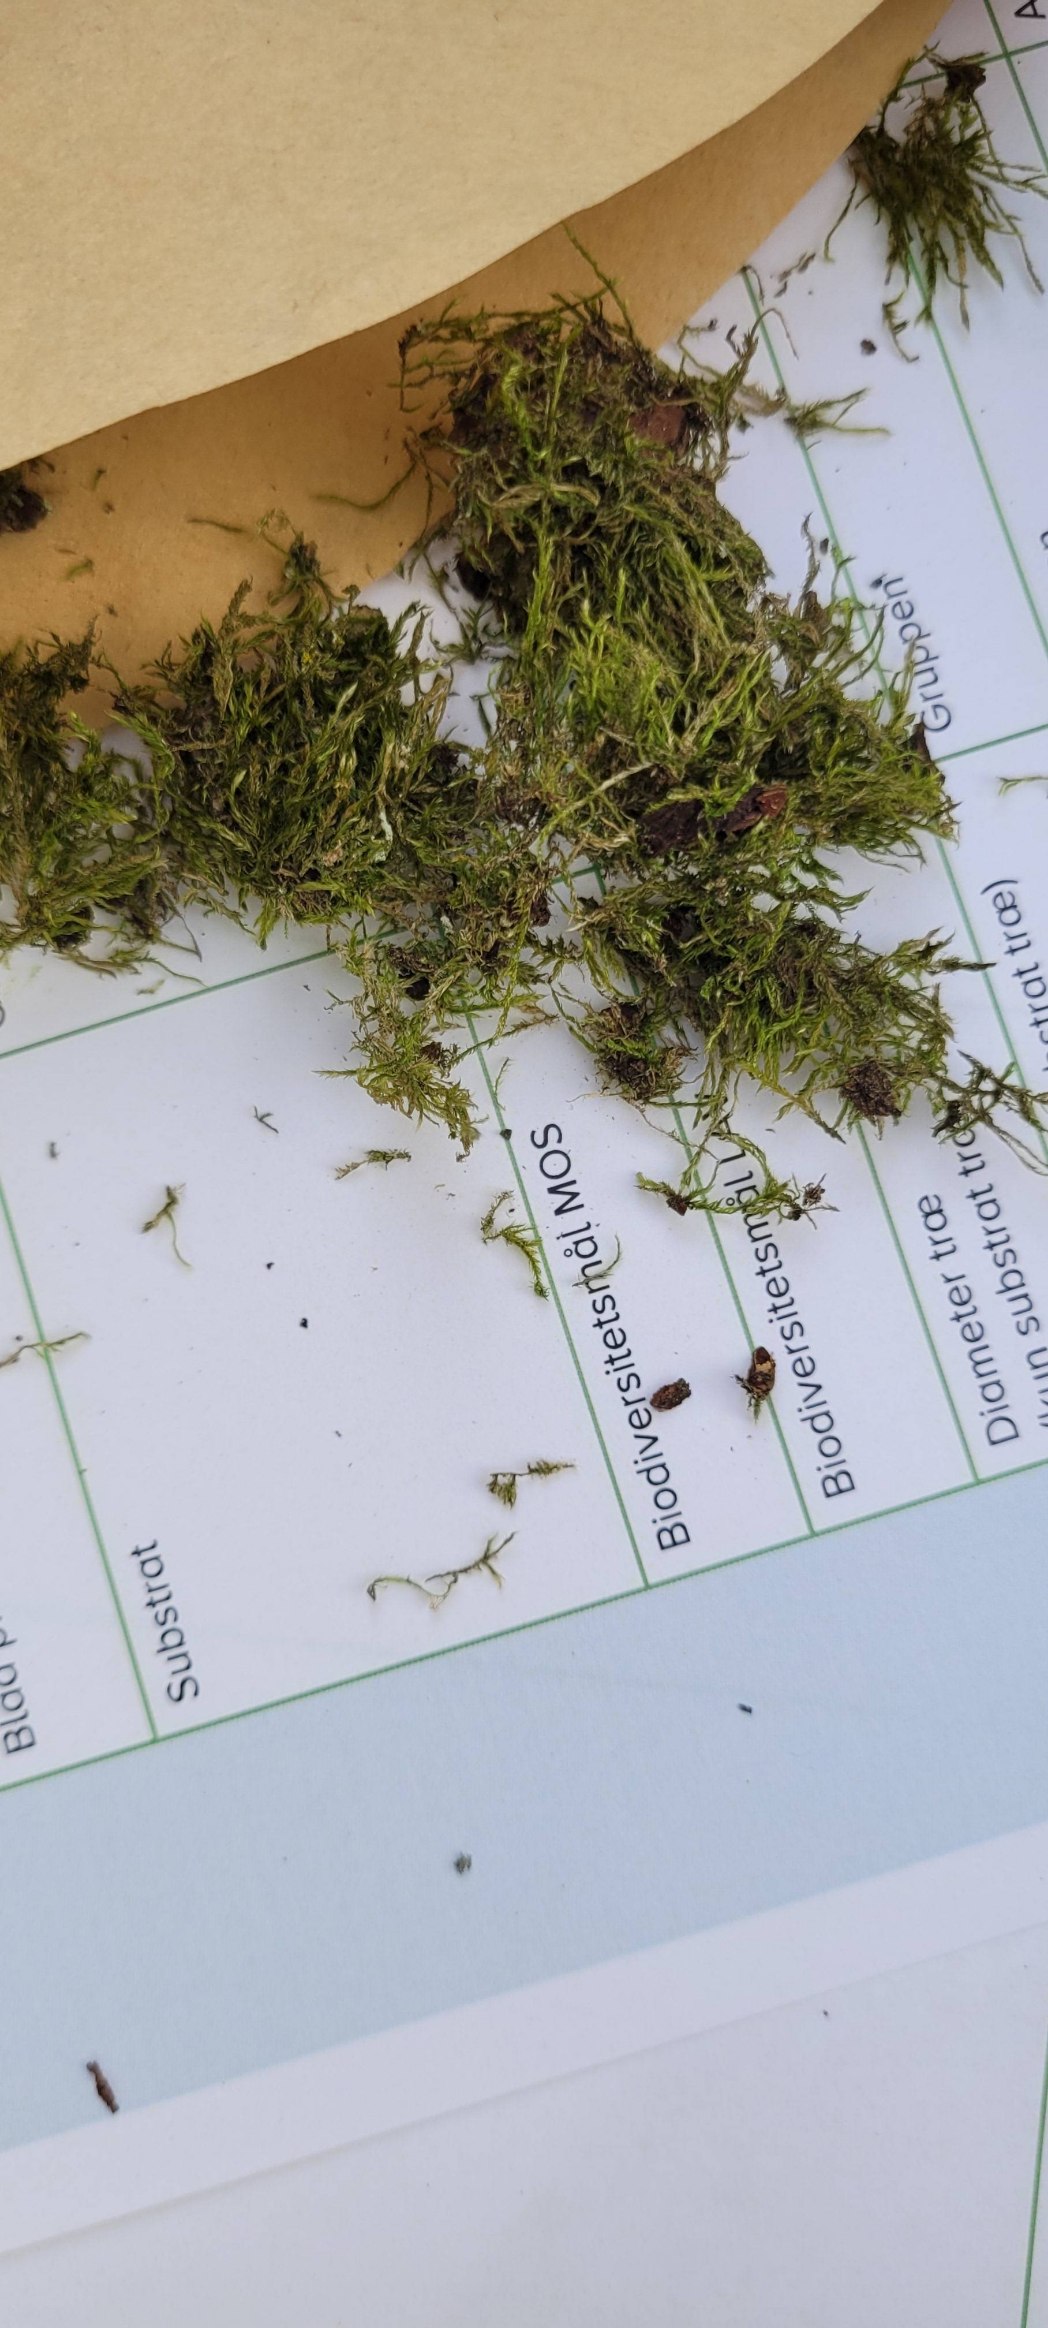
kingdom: Plantae
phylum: Bryophyta
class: Bryopsida
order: Hypnales
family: Hypnaceae
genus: Hypnum
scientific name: Hypnum
